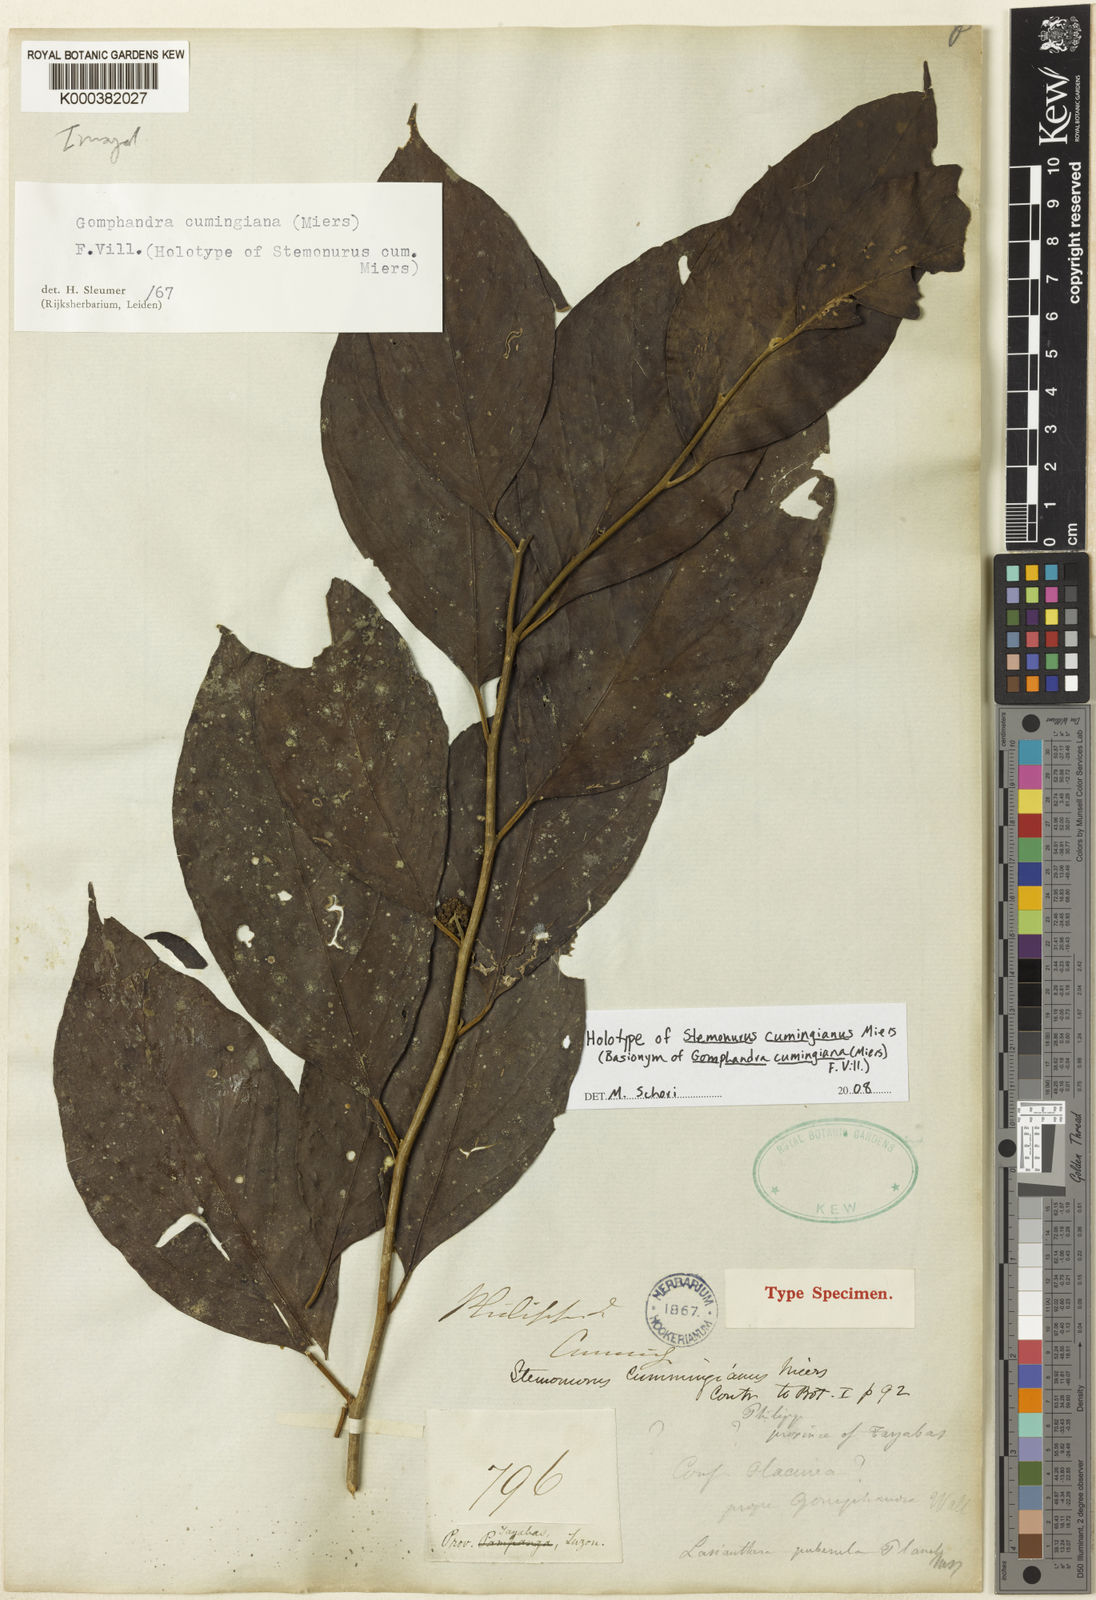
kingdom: Plantae
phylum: Tracheophyta
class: Magnoliopsida
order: Cardiopteridales
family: Stemonuraceae
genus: Gomphandra
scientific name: Gomphandra cumingiana
